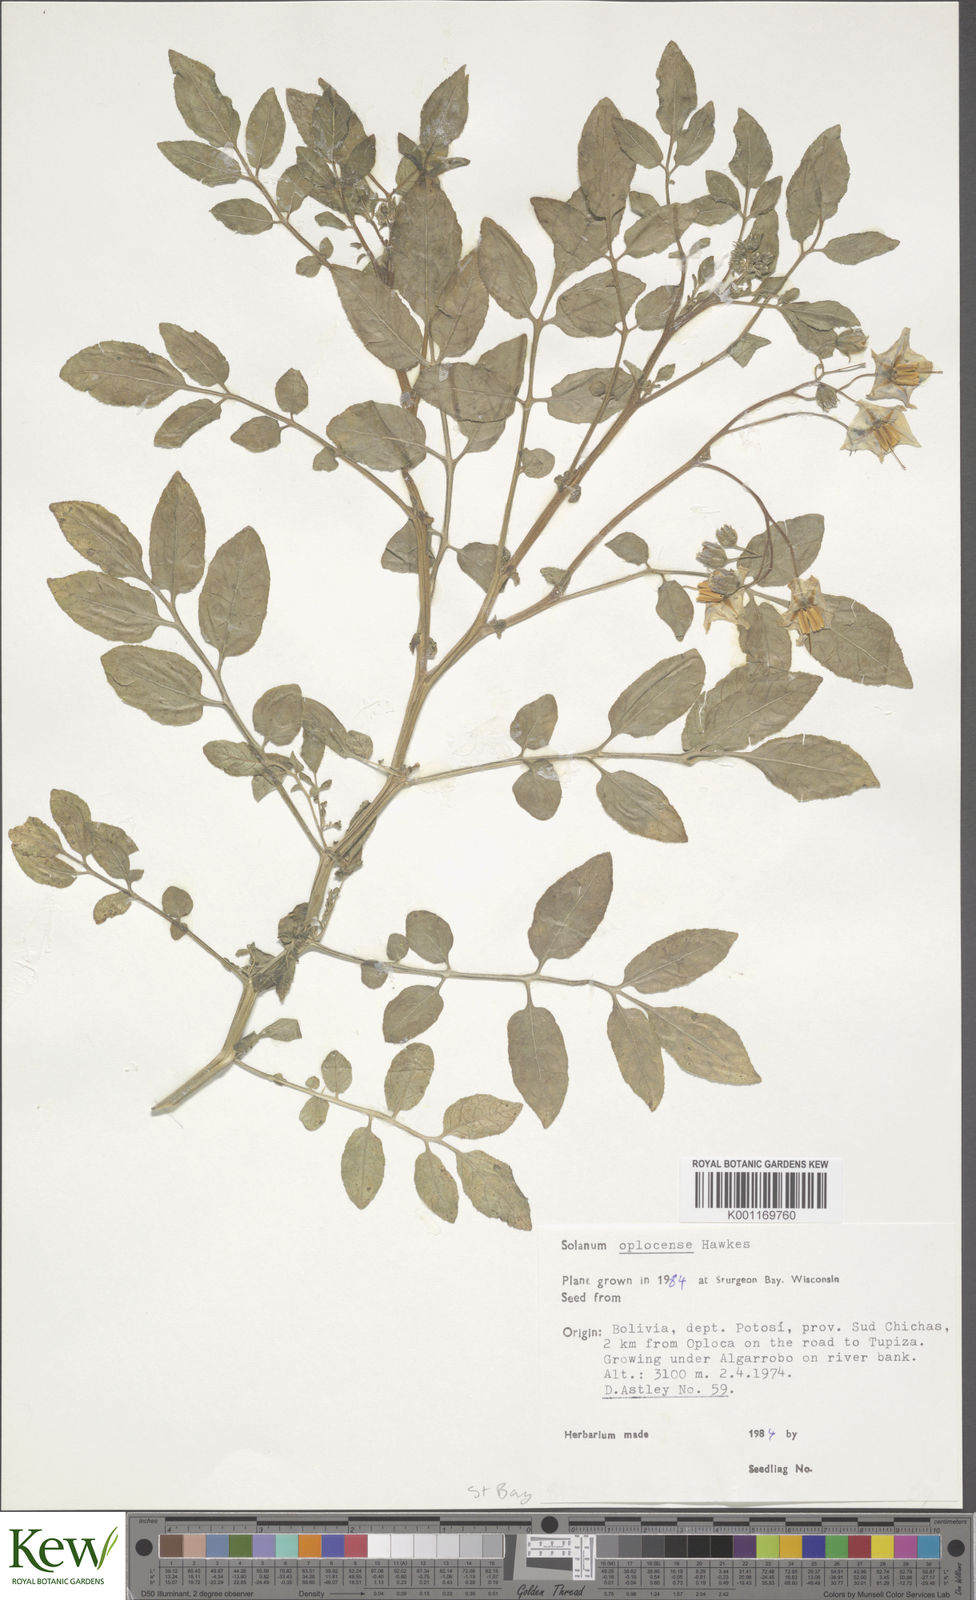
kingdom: Plantae
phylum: Tracheophyta
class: Magnoliopsida
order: Solanales
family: Solanaceae
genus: Solanum
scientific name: Solanum brevicaule
